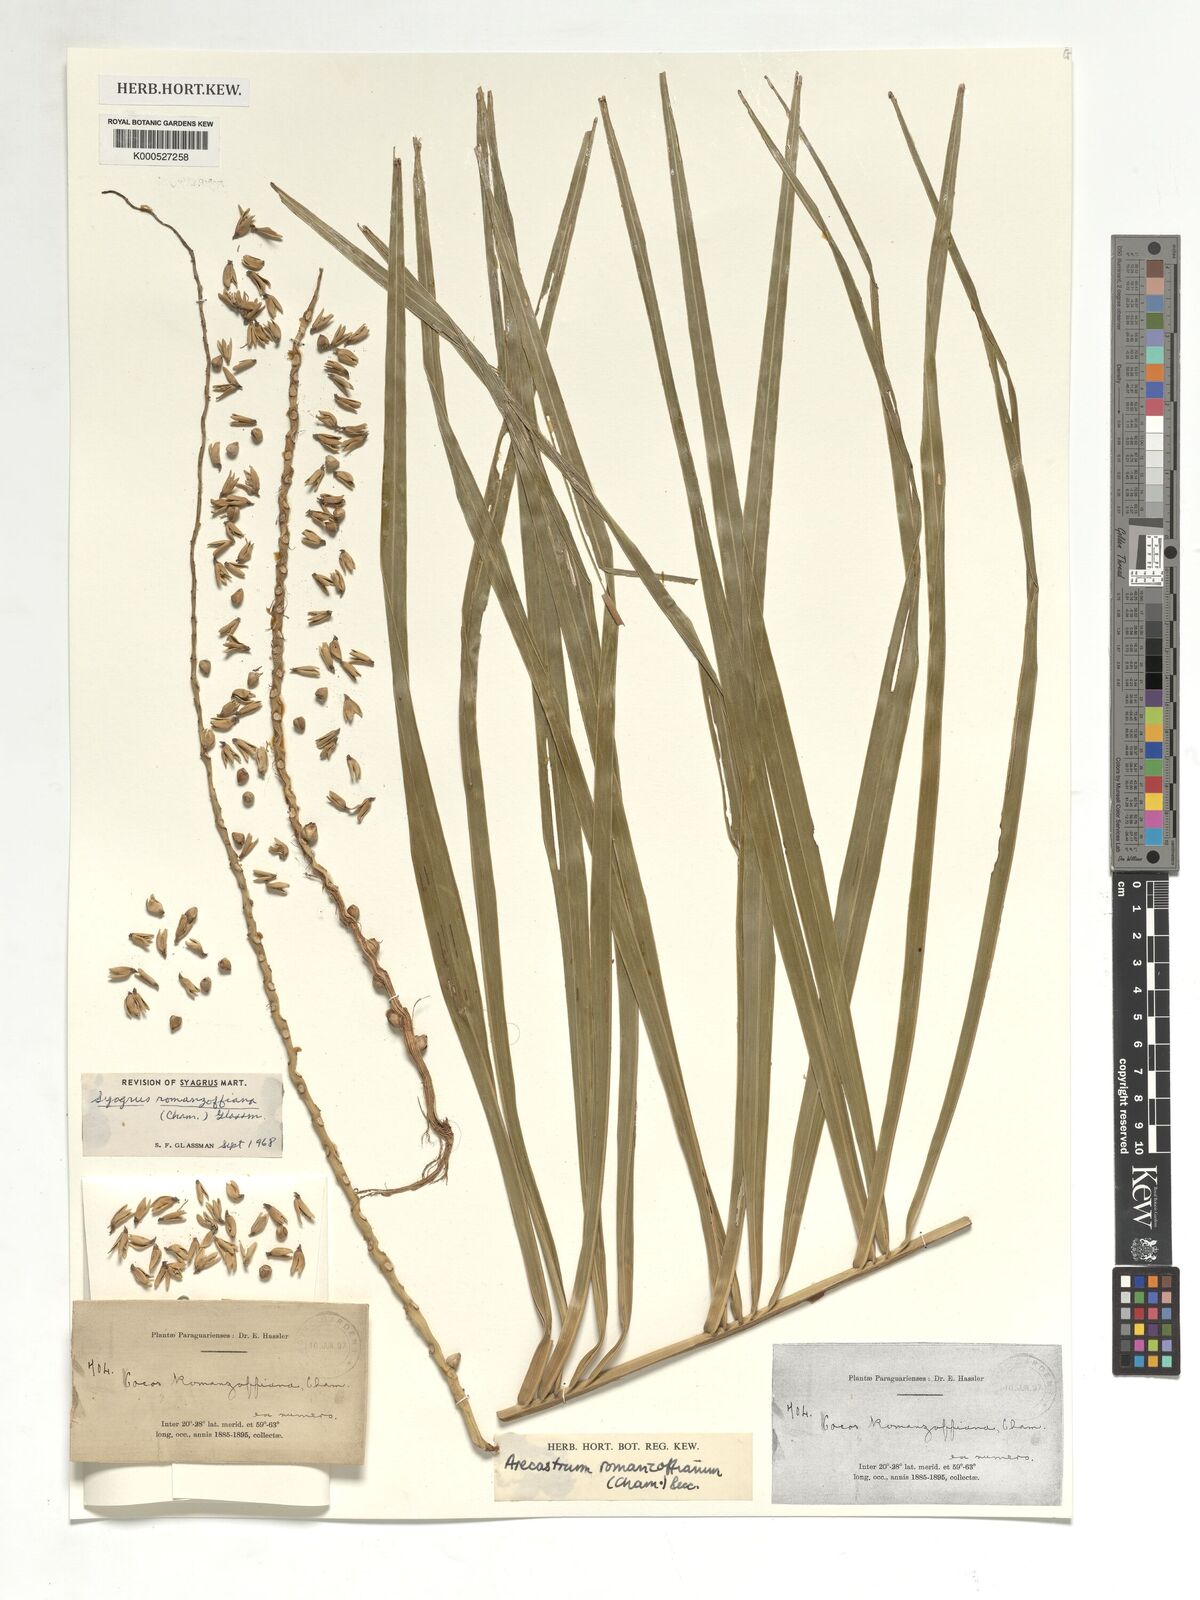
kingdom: Plantae
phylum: Tracheophyta
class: Liliopsida
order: Arecales
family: Arecaceae
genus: Syagrus
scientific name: Syagrus romanzoffiana
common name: Queen palm
